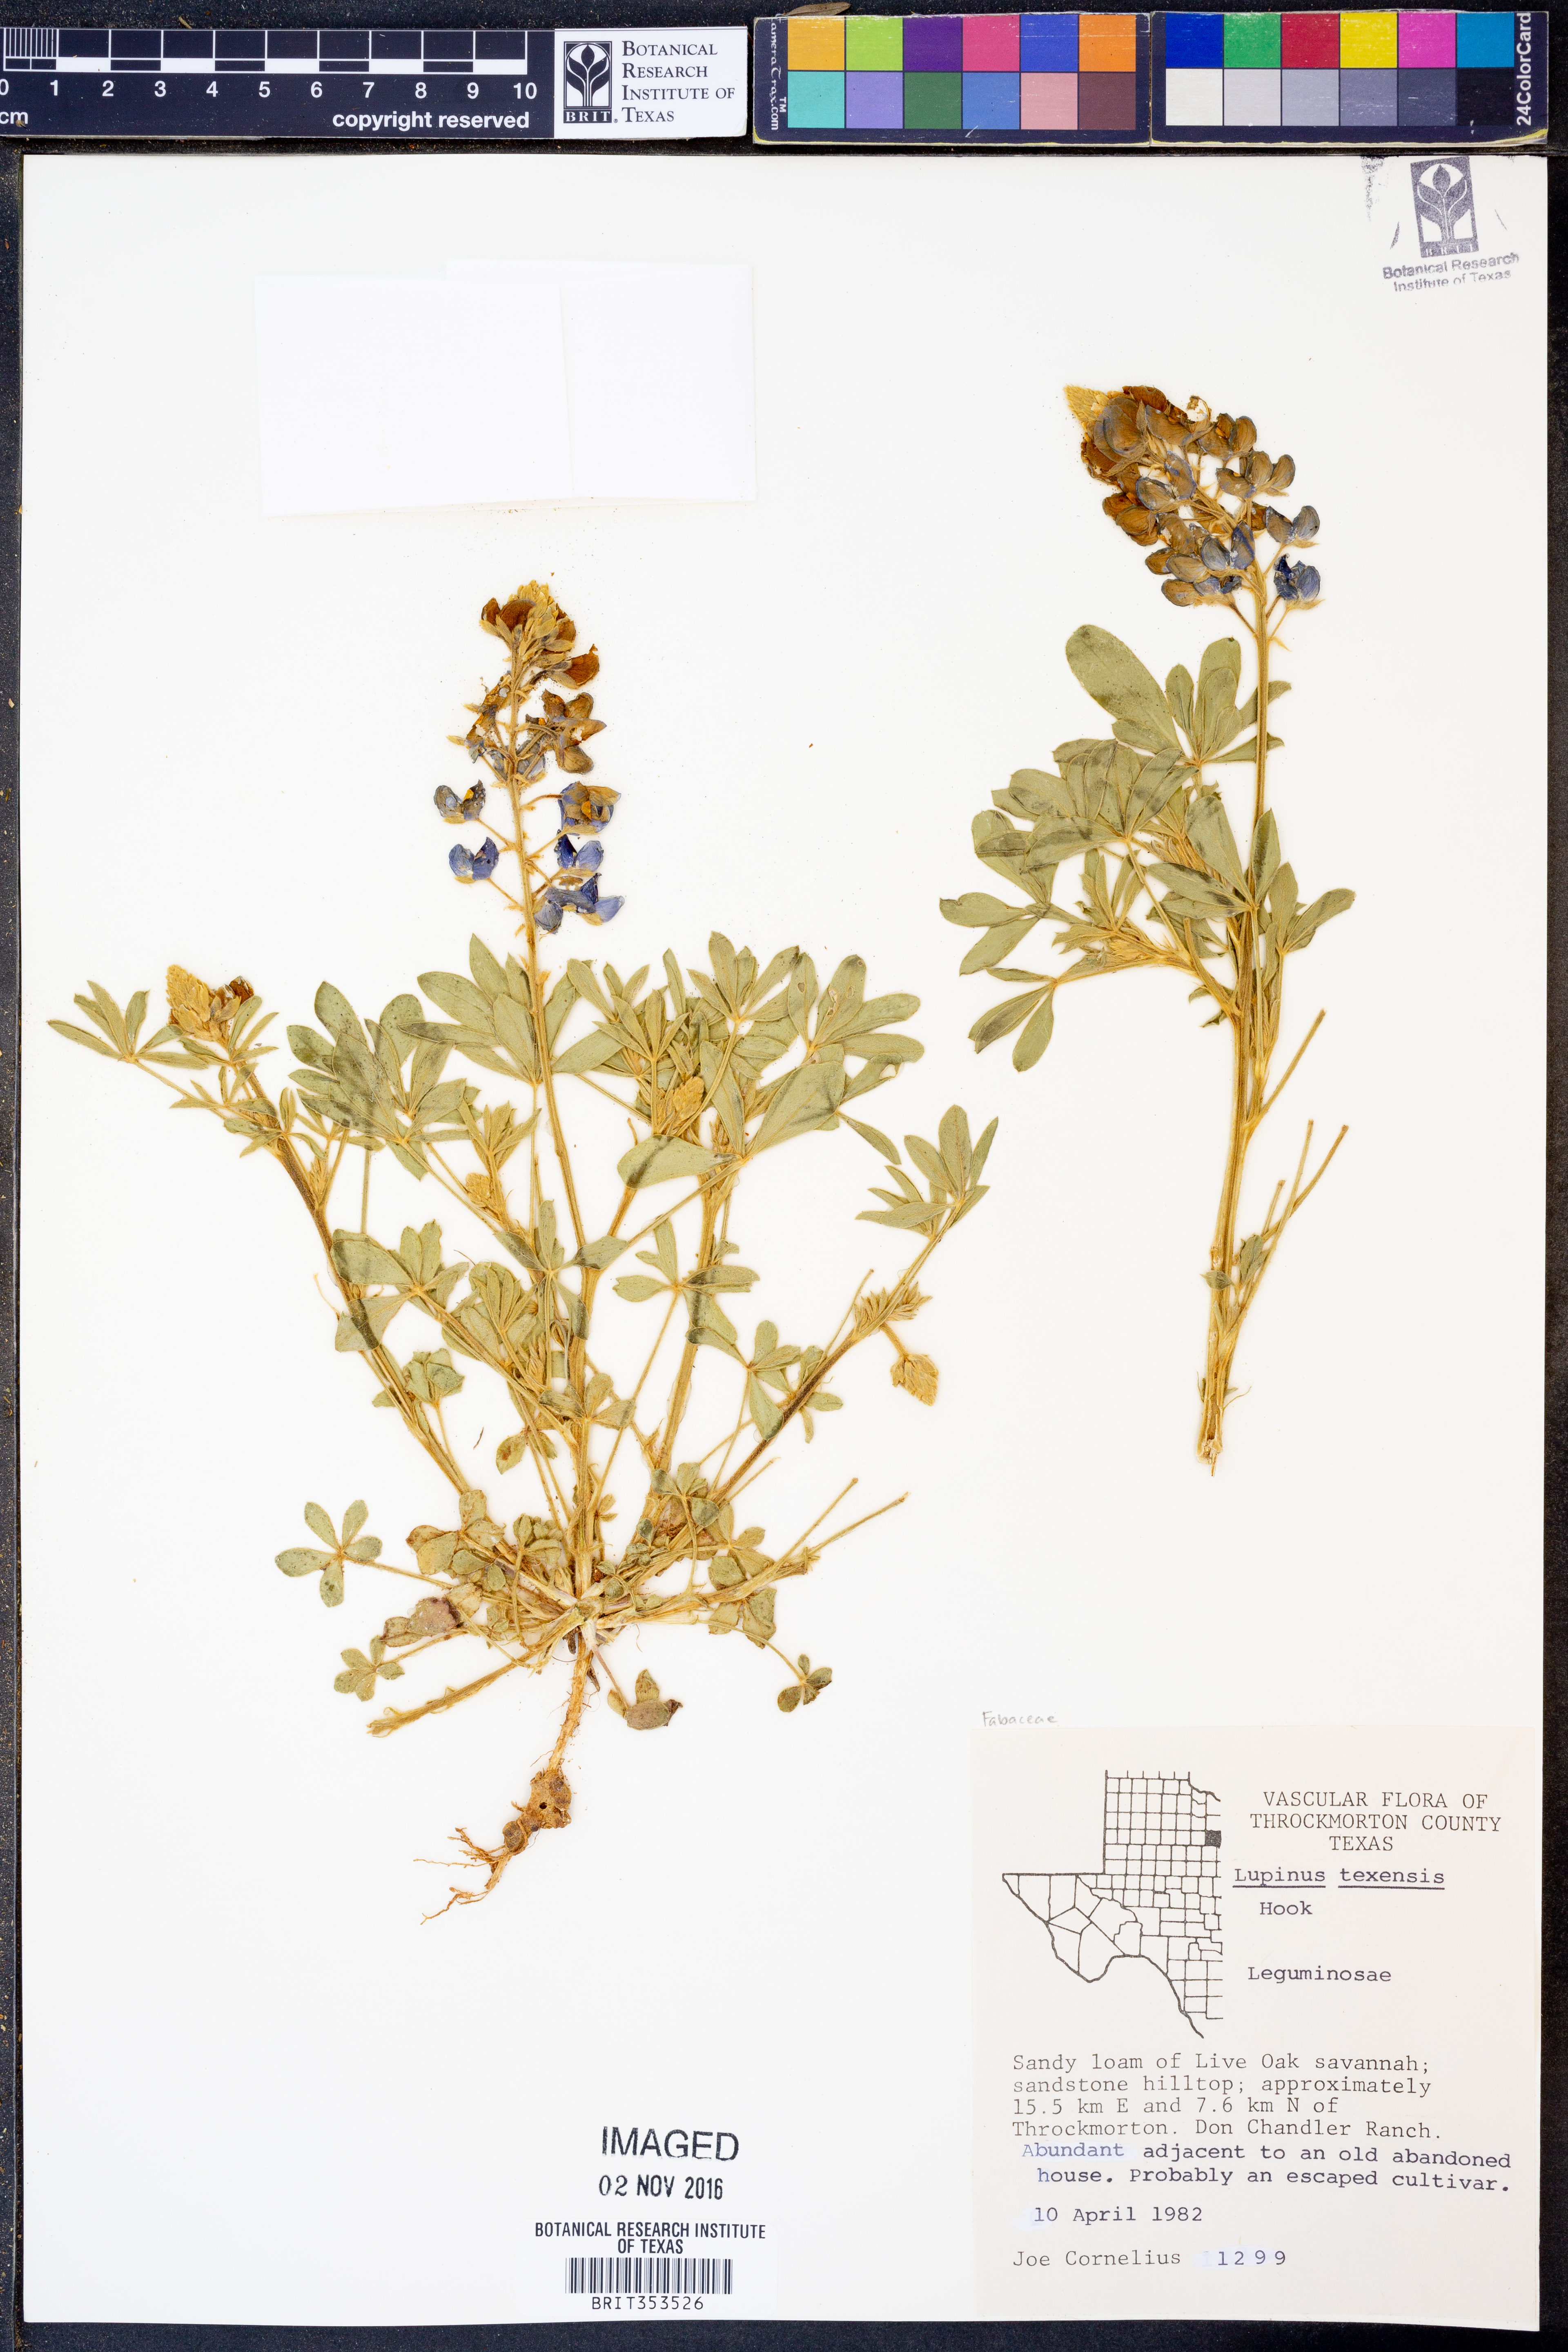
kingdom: Plantae
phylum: Tracheophyta
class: Magnoliopsida
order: Fabales
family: Fabaceae
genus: Lupinus
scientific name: Lupinus texensis
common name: Texas bluebonnet
